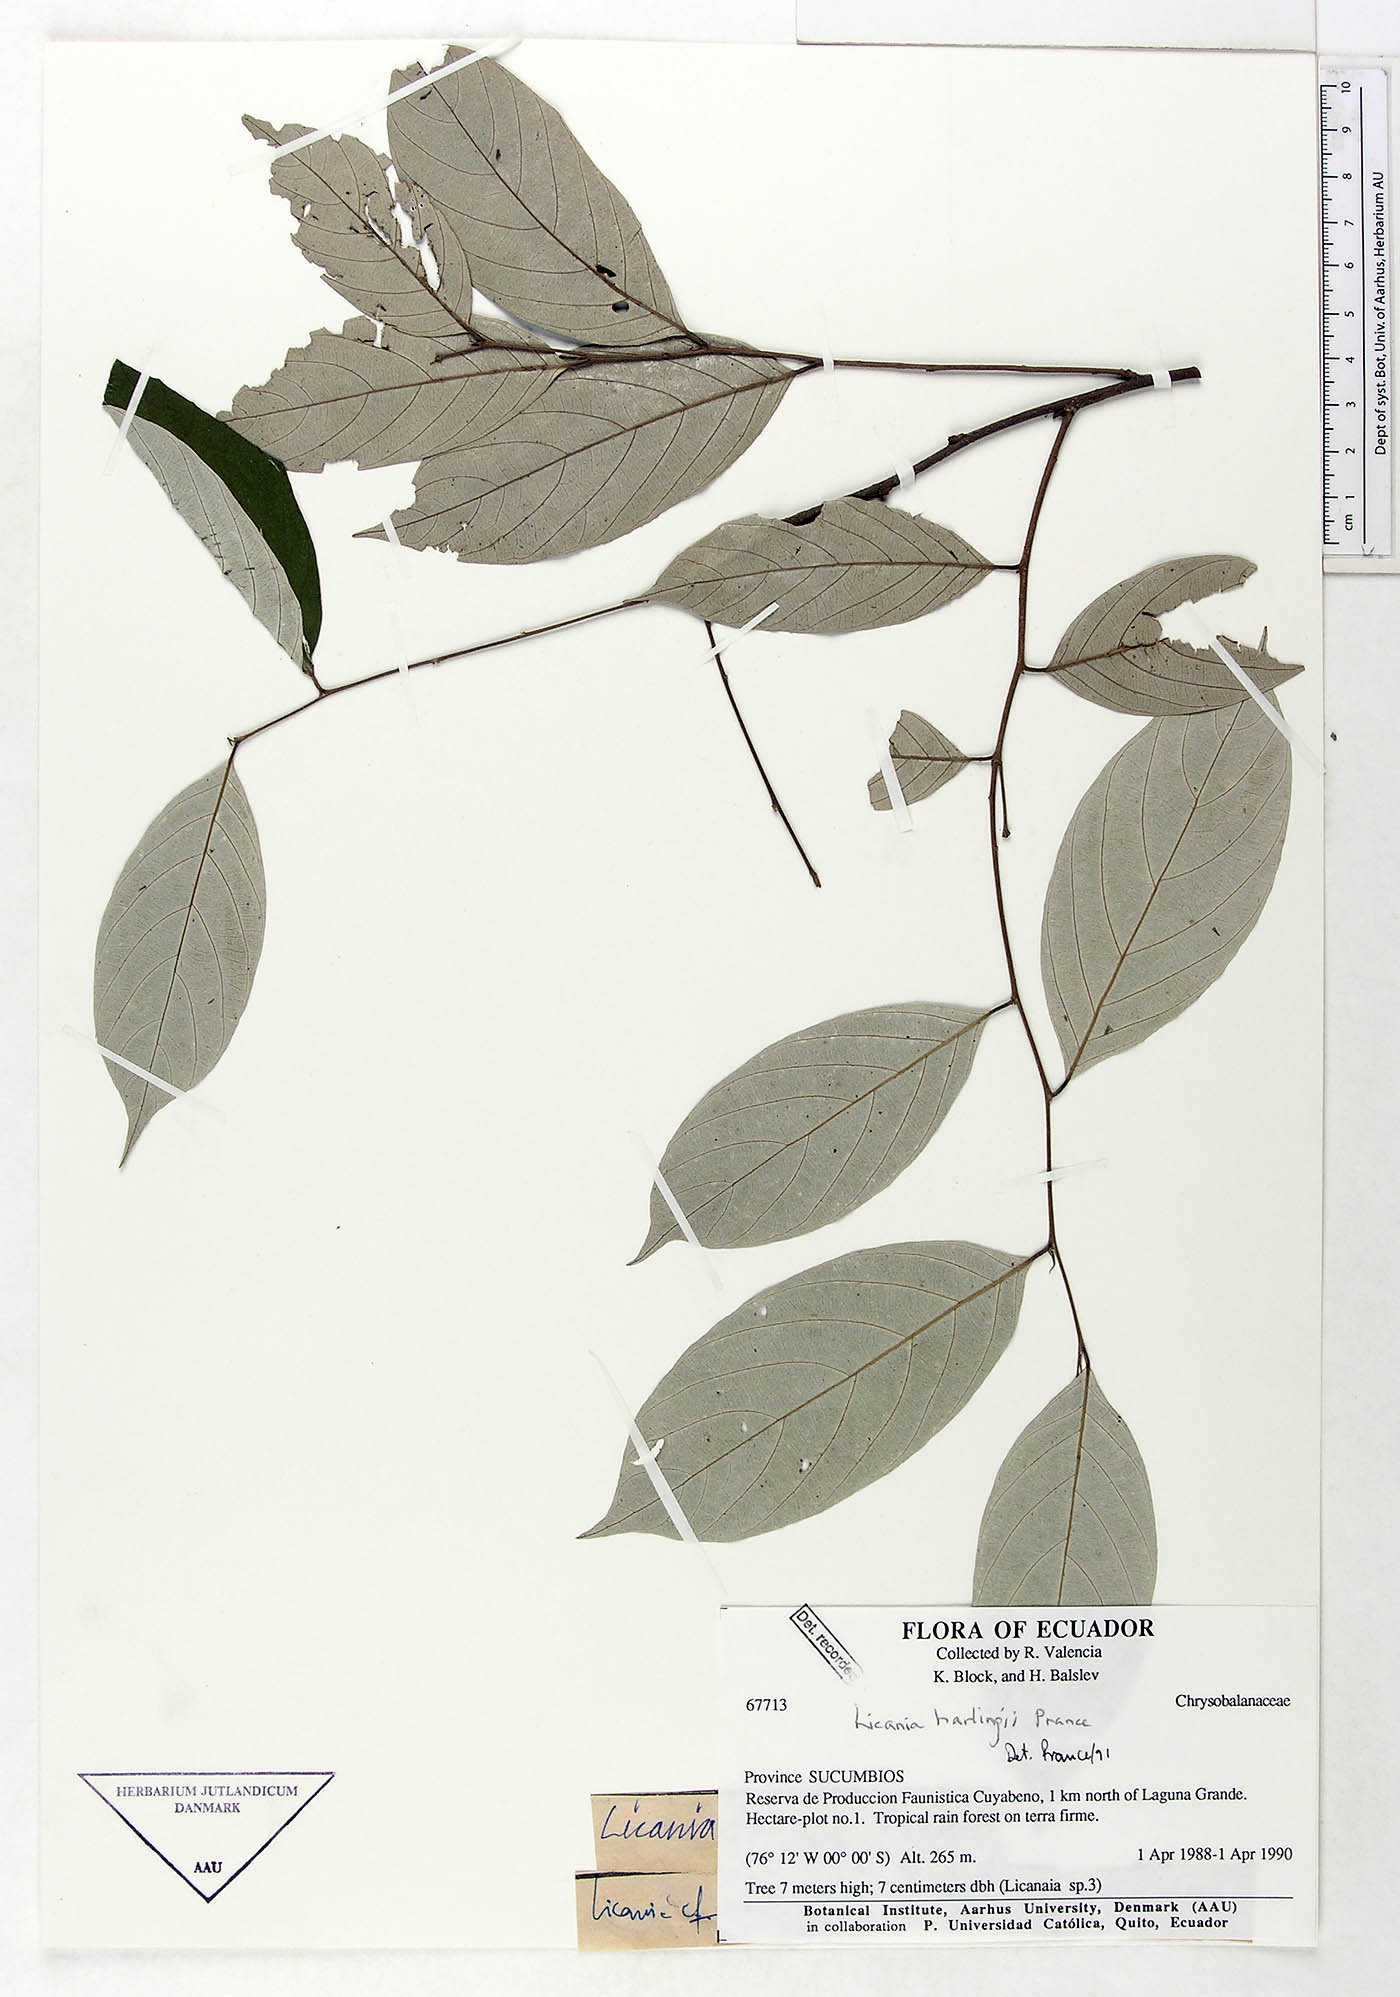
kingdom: Plantae
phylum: Tracheophyta
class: Magnoliopsida
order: Malpighiales
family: Chrysobalanaceae
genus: Licania
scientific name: Licania harlingii
